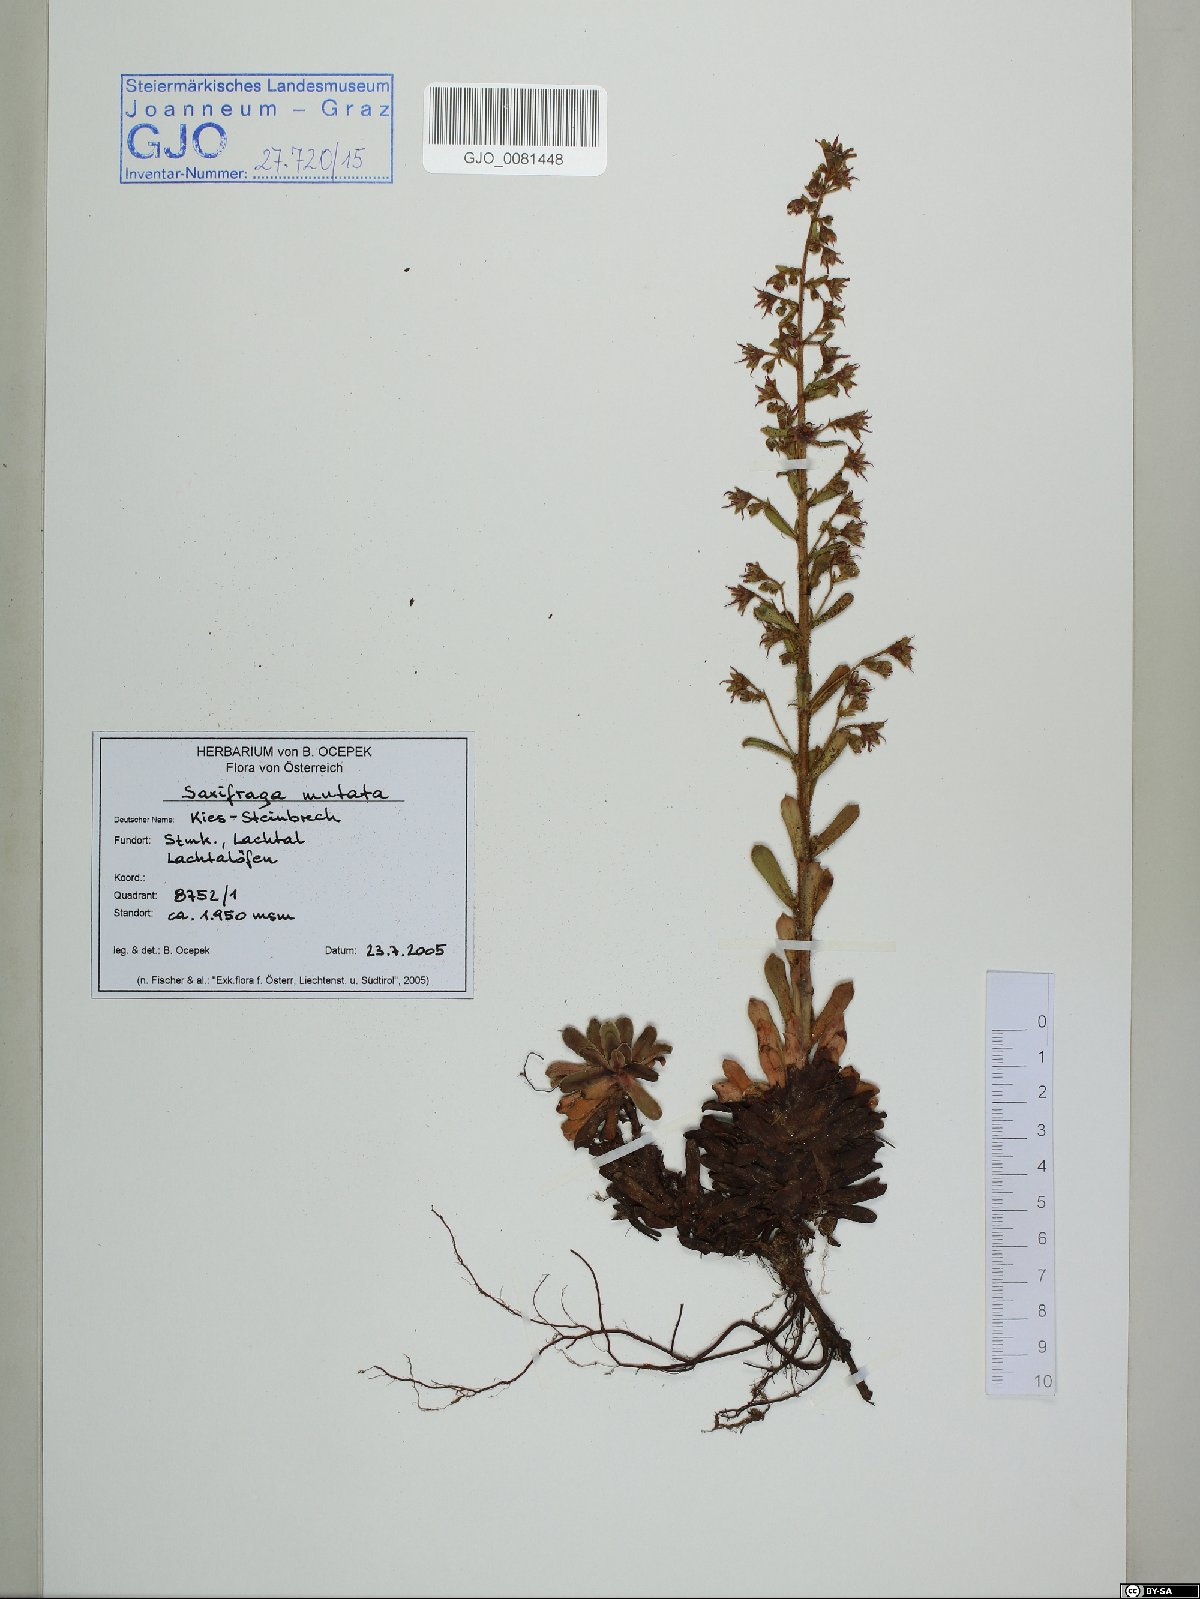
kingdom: Plantae
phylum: Tracheophyta
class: Magnoliopsida
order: Saxifragales
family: Saxifragaceae
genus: Saxifraga
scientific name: Saxifraga mutata
